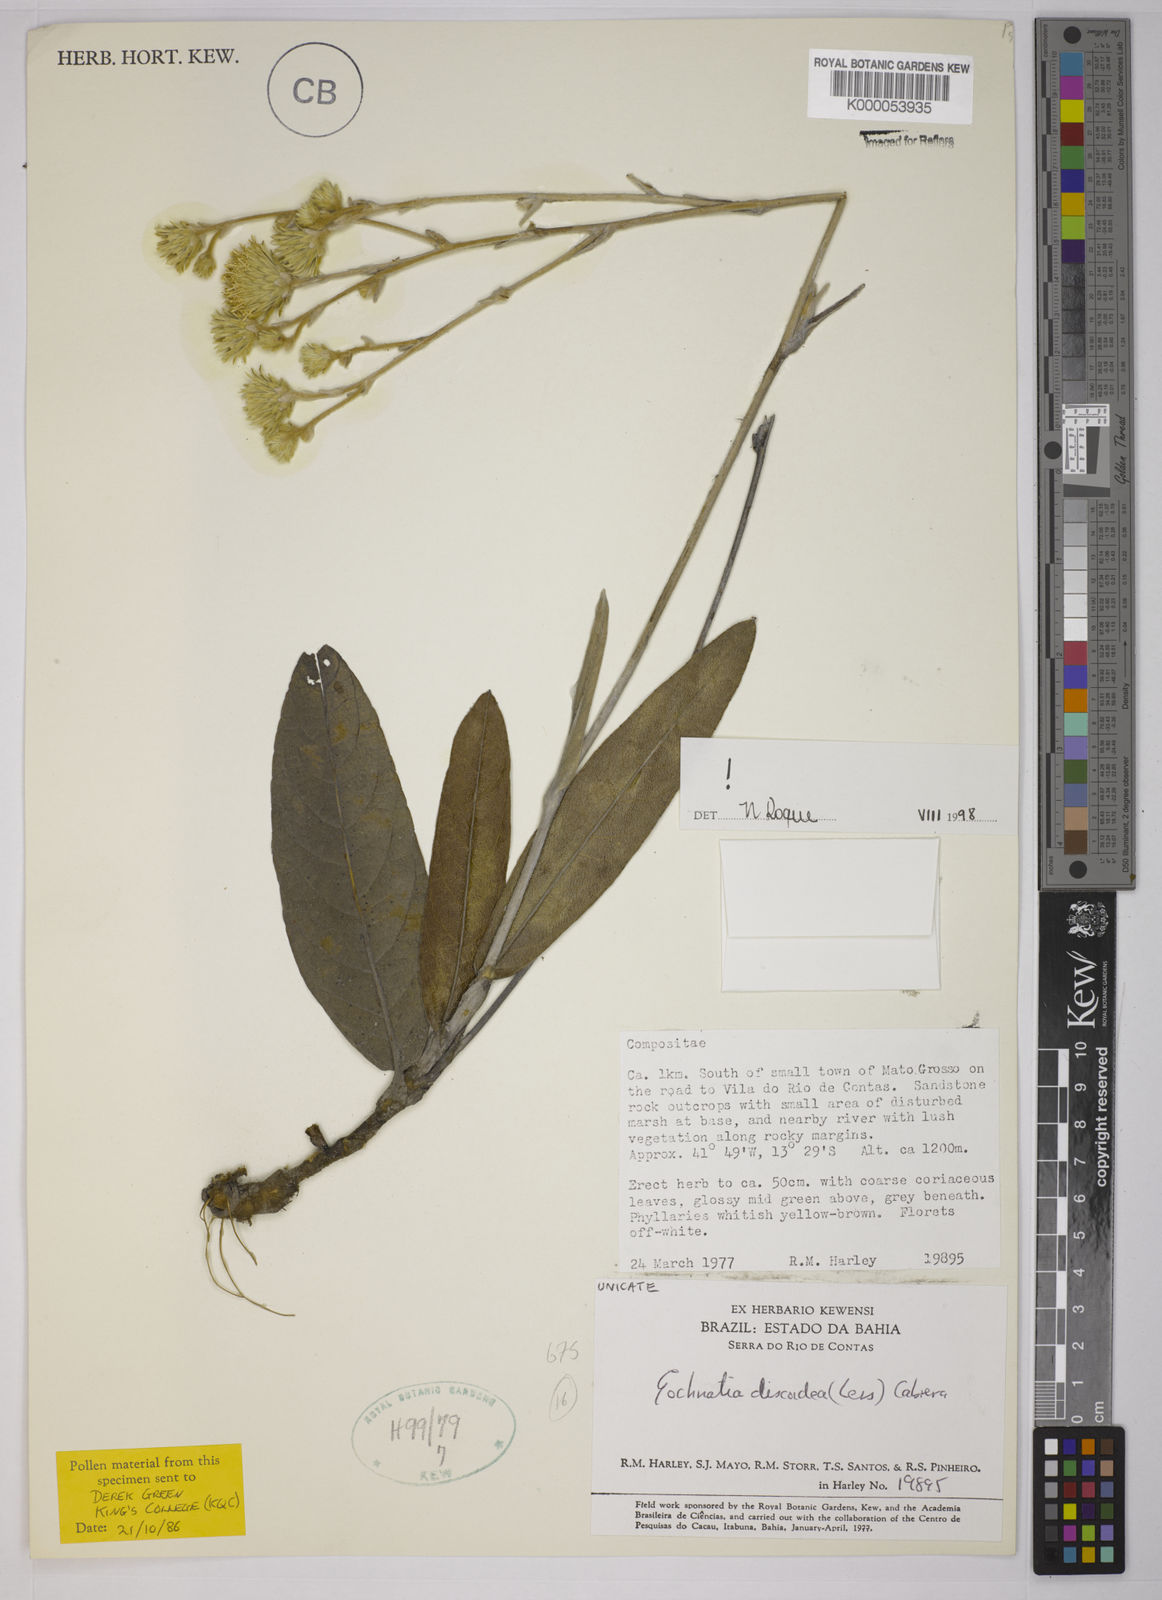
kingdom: Plantae
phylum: Tracheophyta
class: Magnoliopsida
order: Asterales
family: Asteraceae
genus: Richterago
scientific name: Richterago discoidea
